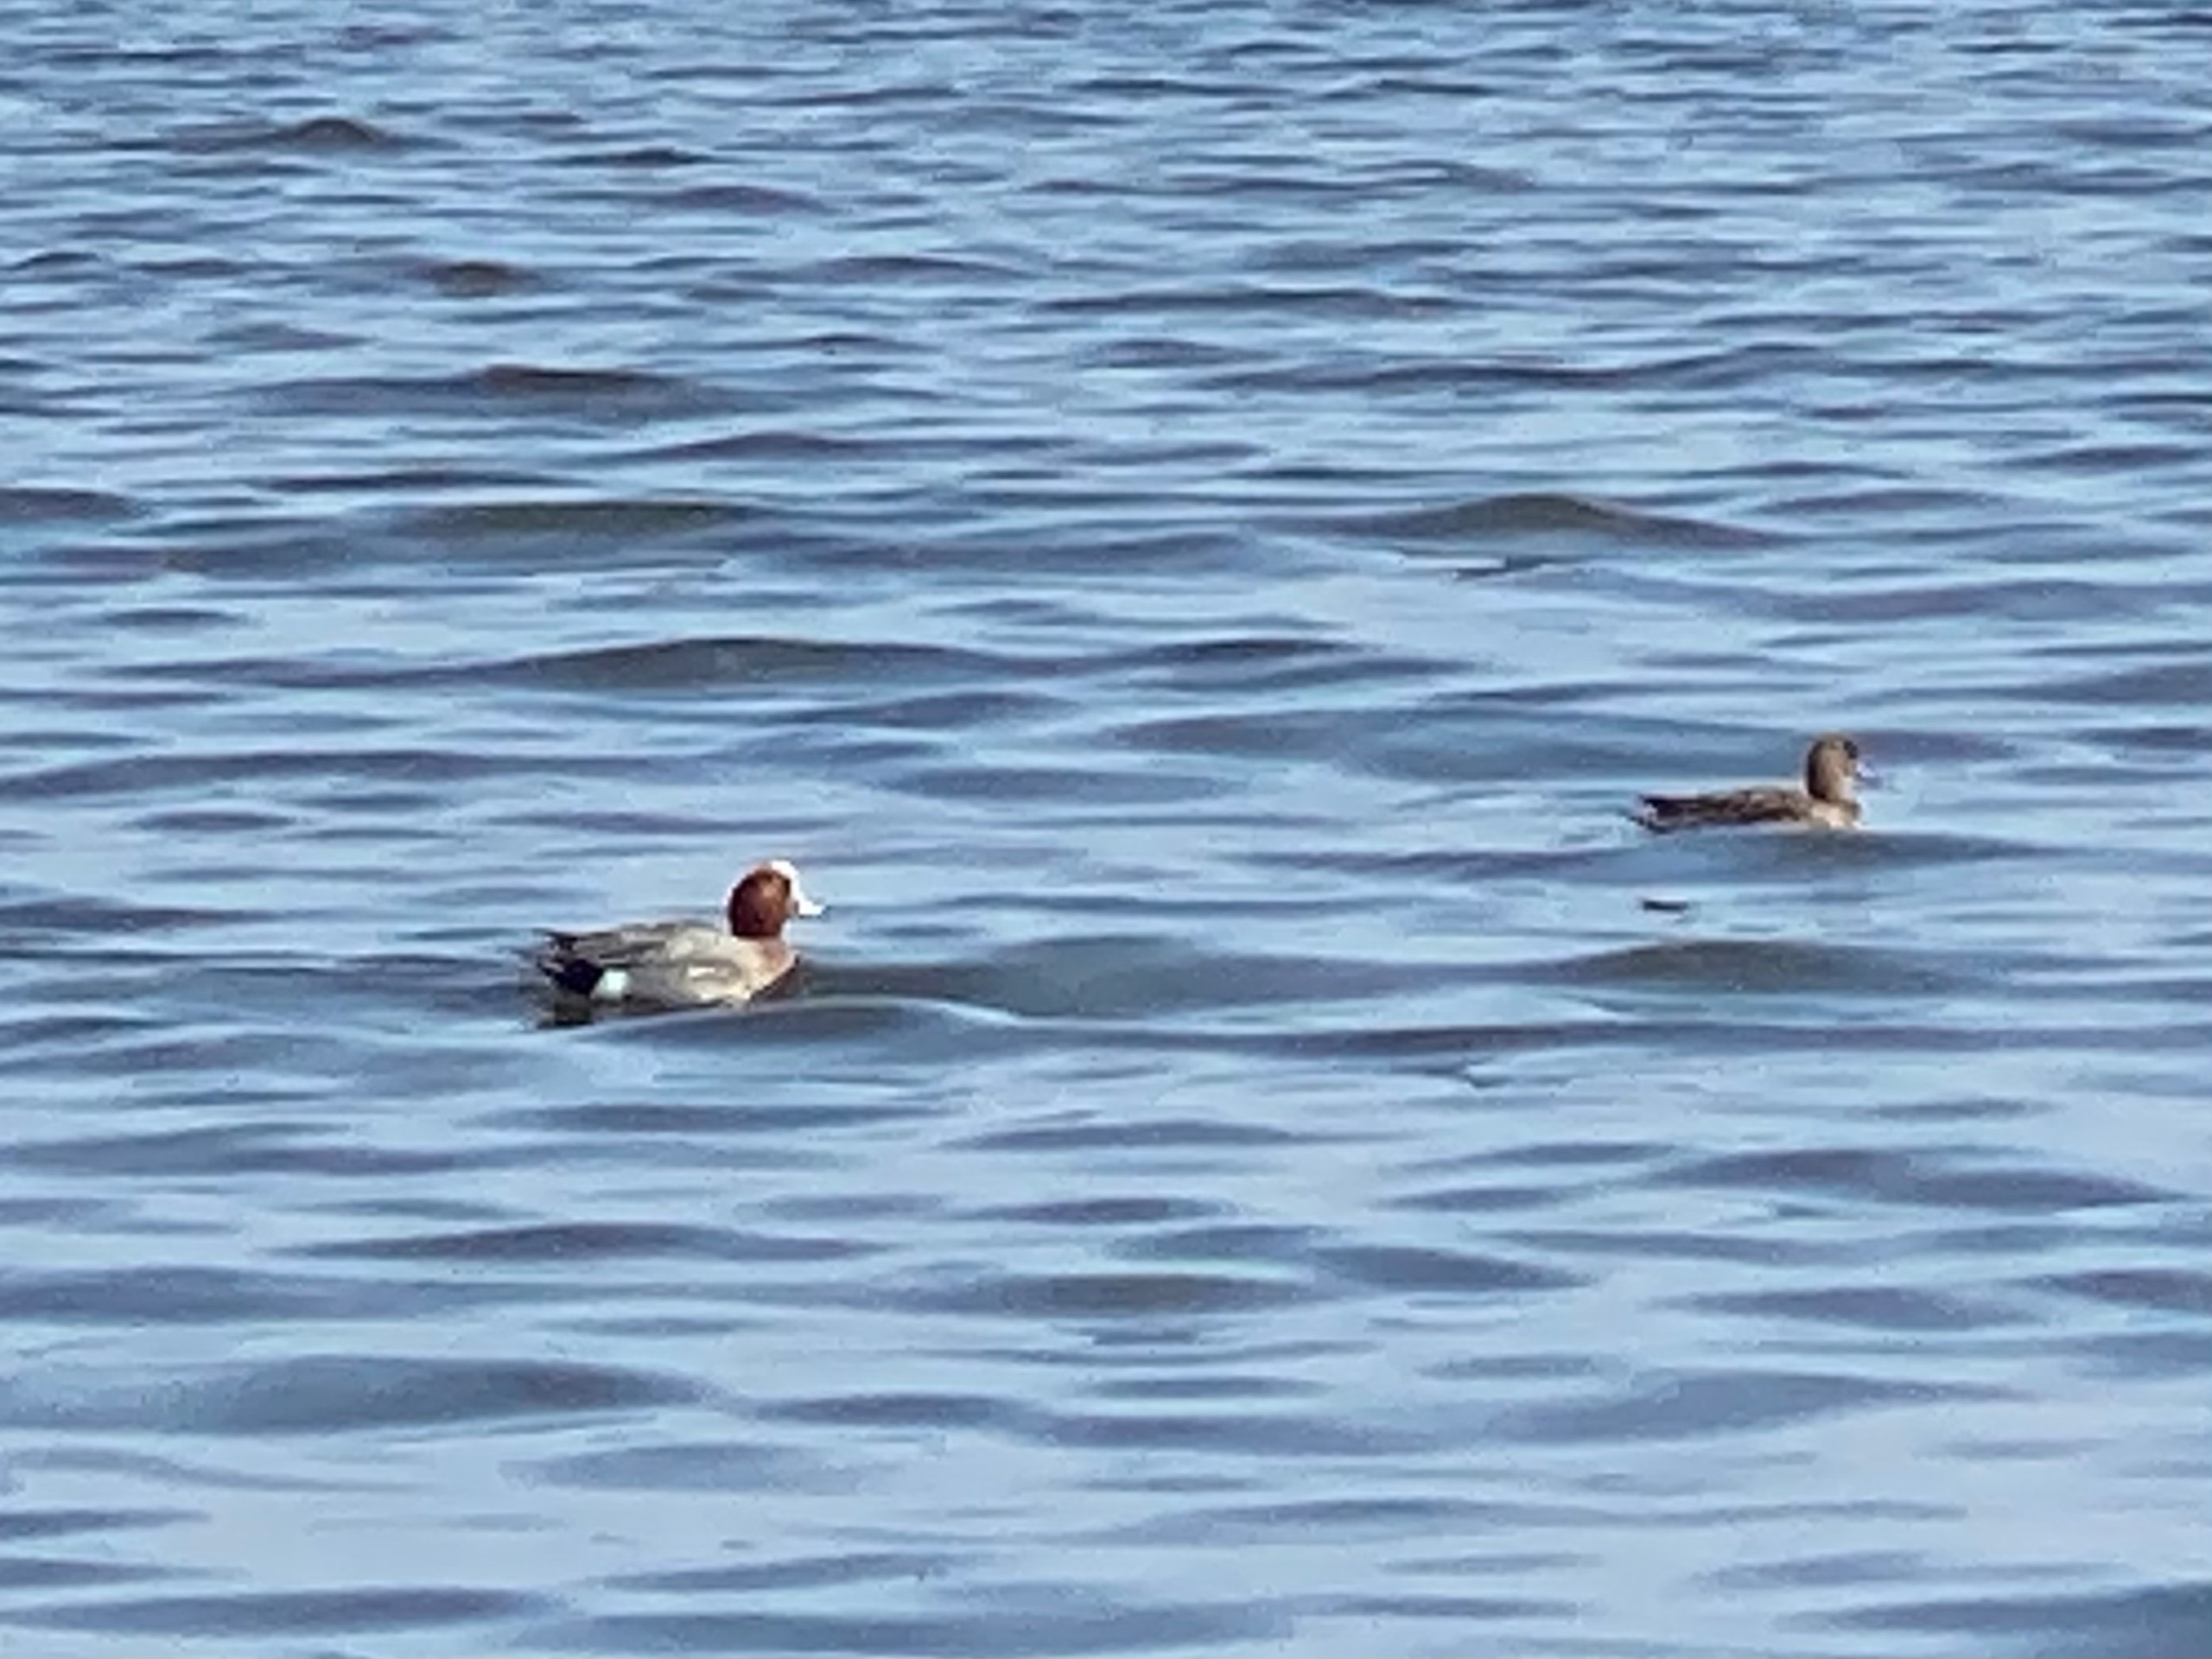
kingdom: Animalia
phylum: Chordata
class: Aves
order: Anseriformes
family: Anatidae
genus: Mareca
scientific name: Mareca penelope
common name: Pibeand
